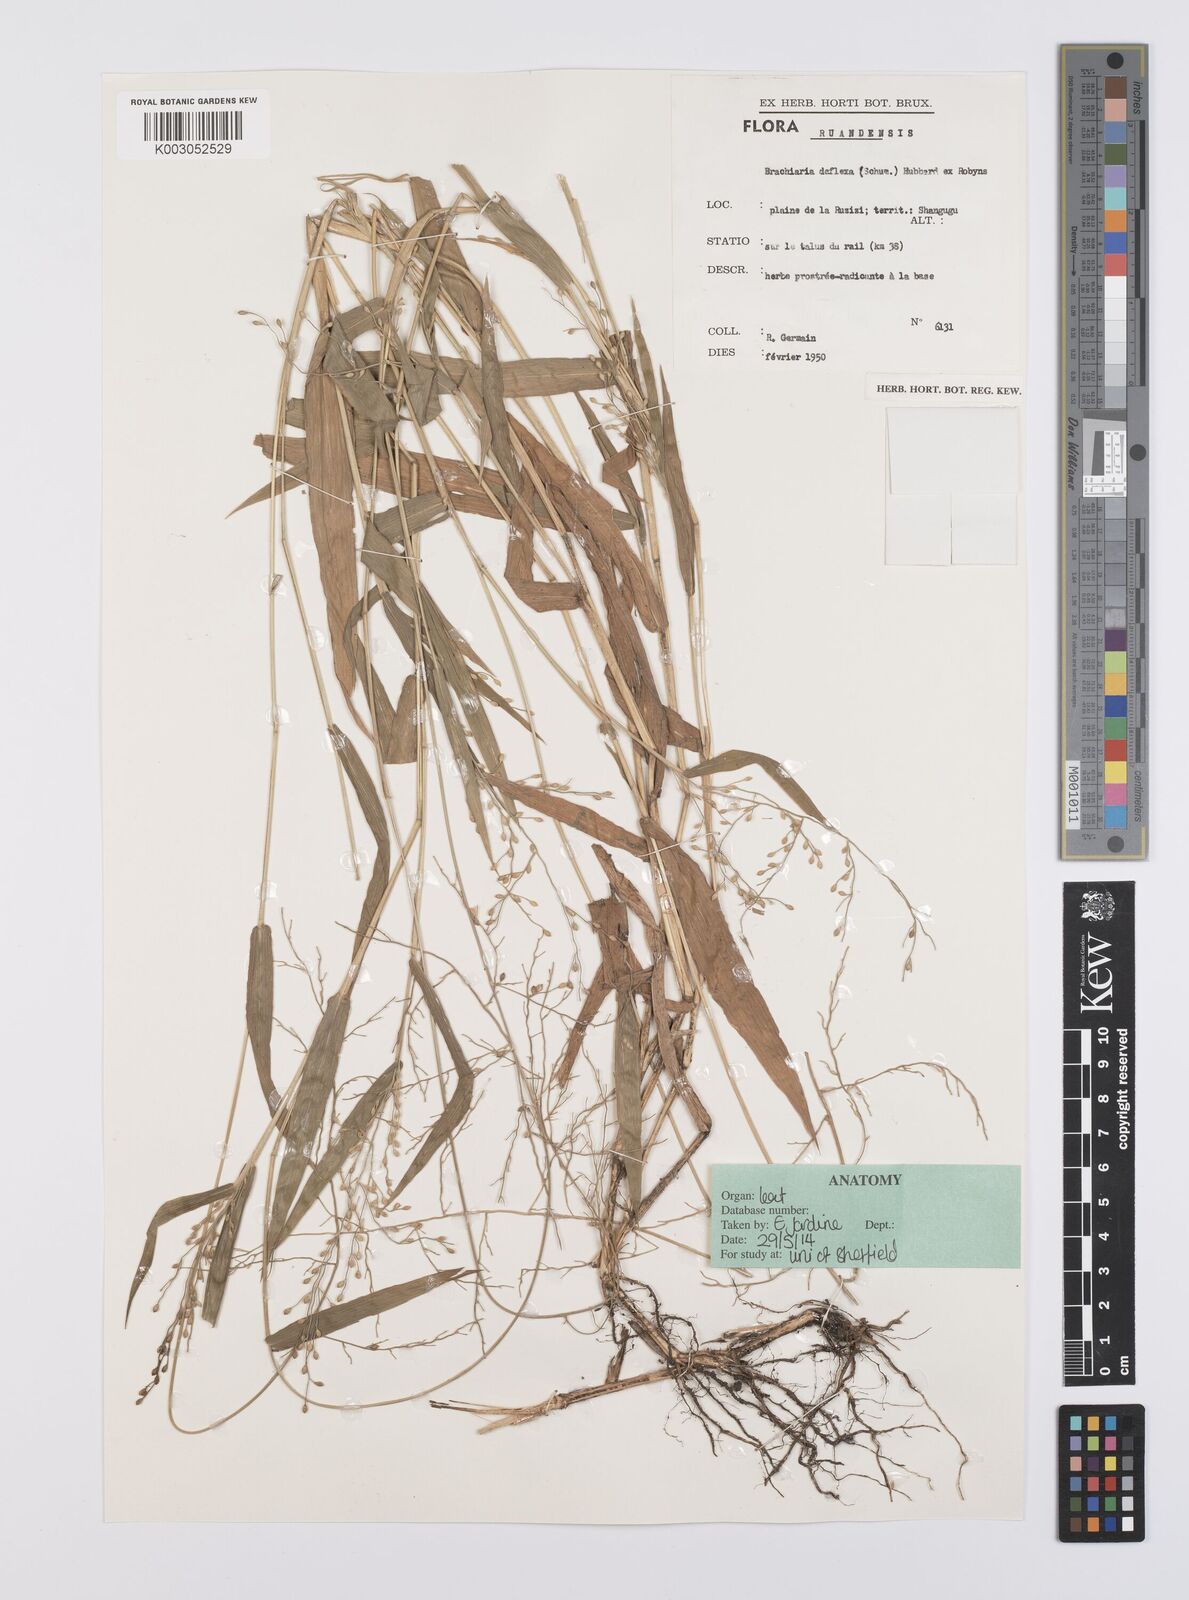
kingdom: Plantae
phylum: Tracheophyta
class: Liliopsida
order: Poales
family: Poaceae
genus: Urochloa
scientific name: Urochloa deflexa
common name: Guinea millet
